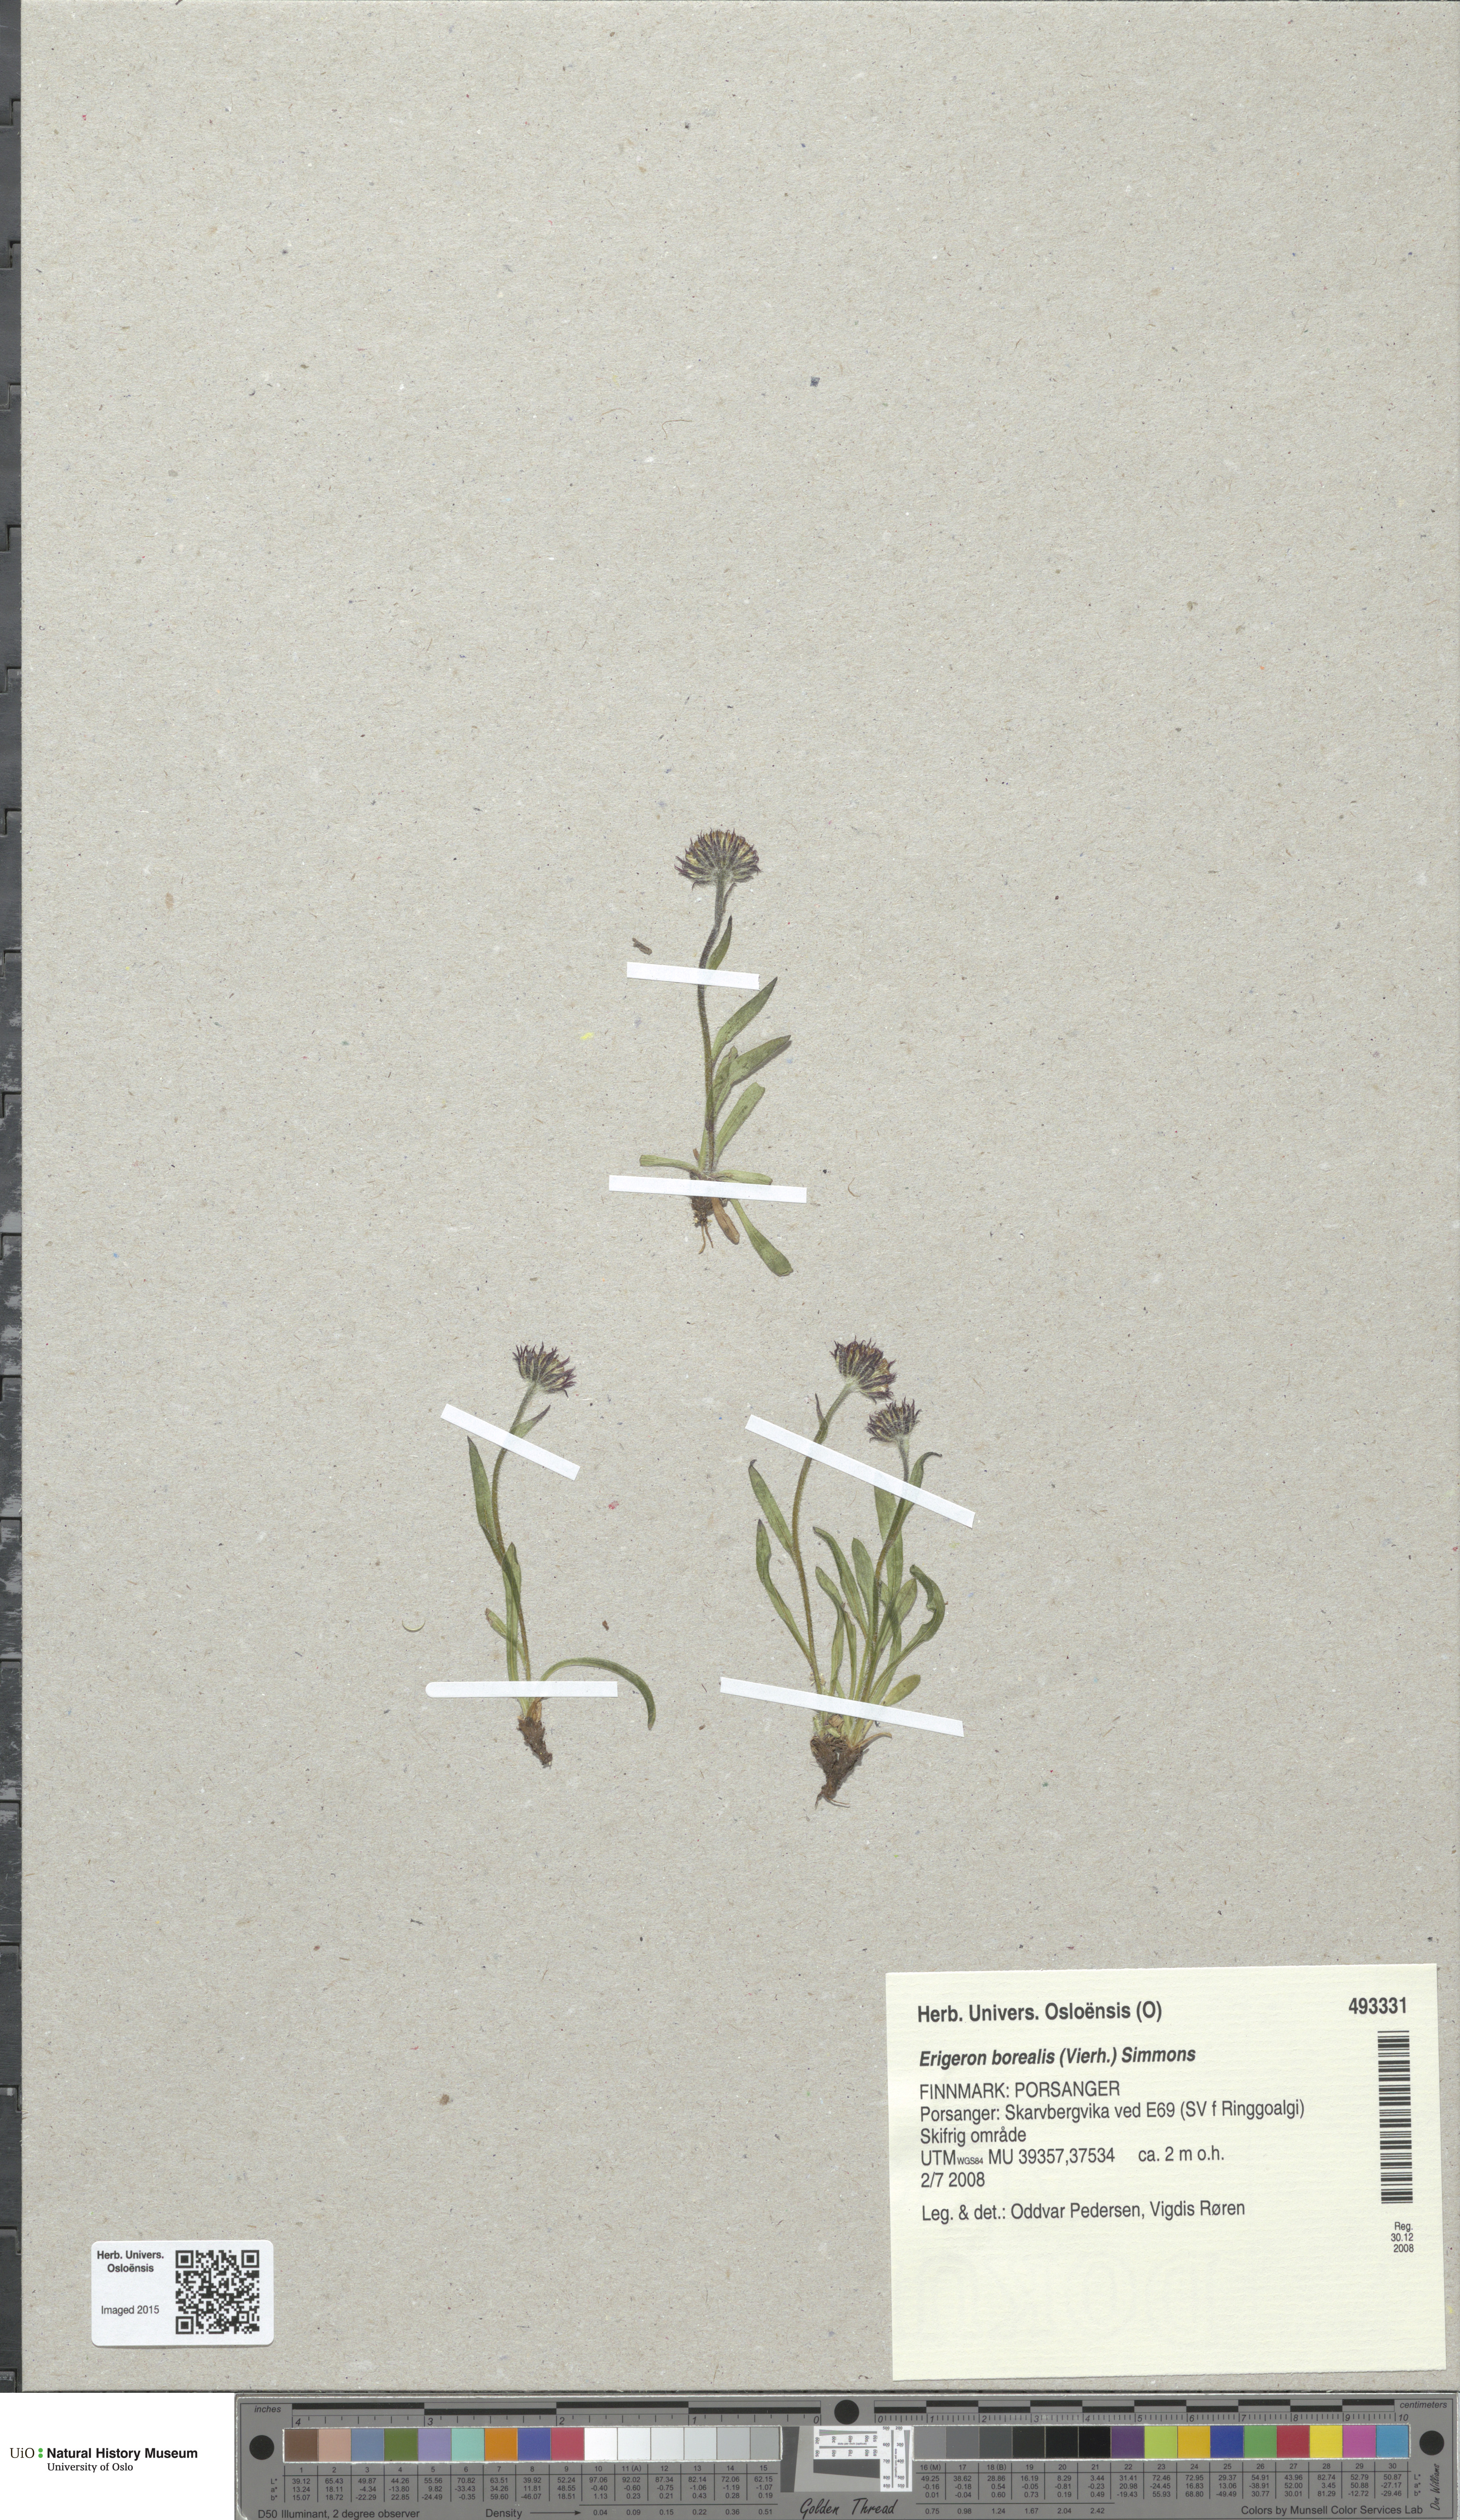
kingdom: Plantae
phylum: Tracheophyta
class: Magnoliopsida
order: Asterales
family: Asteraceae
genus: Erigeron
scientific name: Erigeron borealis
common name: Alpine fleabane
